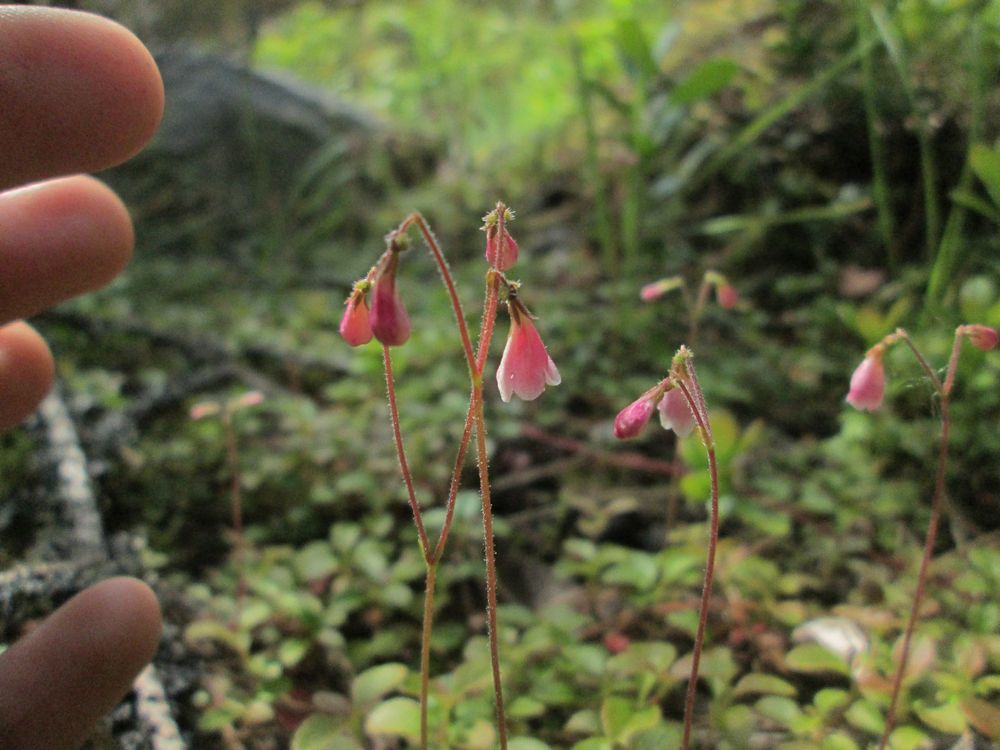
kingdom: Plantae
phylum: Tracheophyta
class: Magnoliopsida
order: Dipsacales
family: Caprifoliaceae
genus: Linnaea
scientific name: Linnaea borealis
